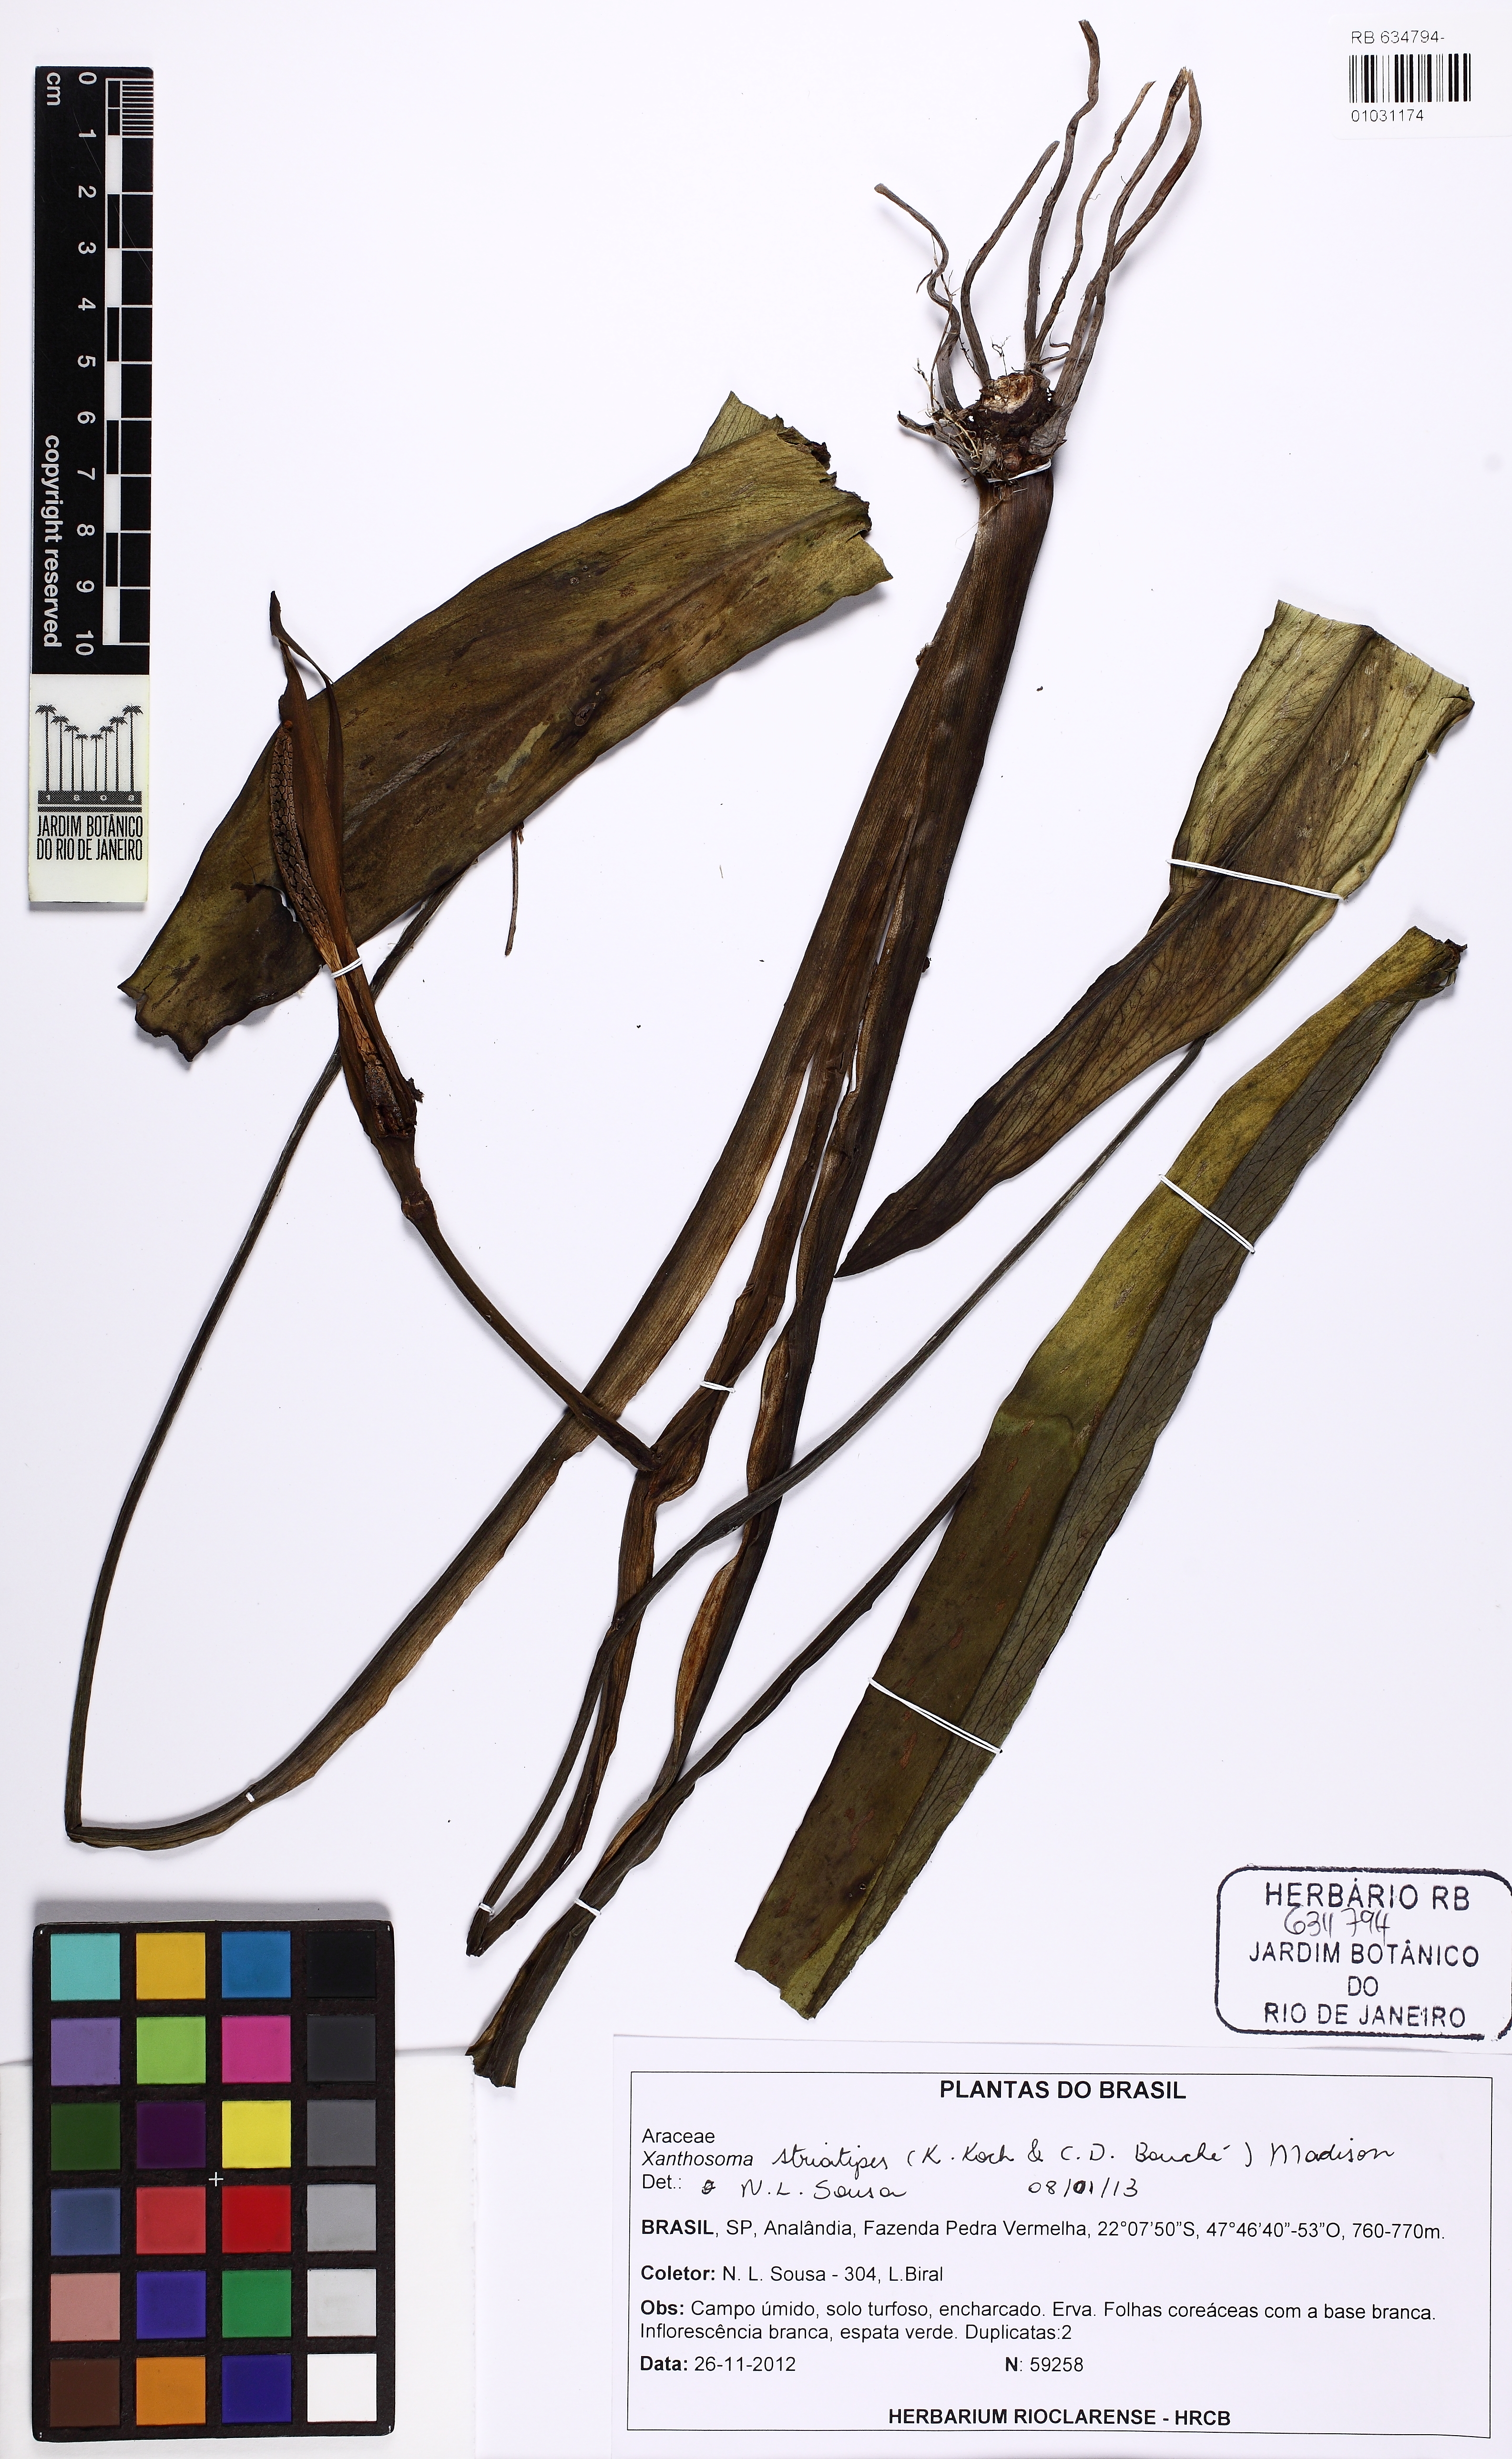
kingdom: Plantae
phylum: Tracheophyta
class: Liliopsida
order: Alismatales
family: Araceae
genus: Xanthosoma
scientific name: Xanthosoma striatipes
